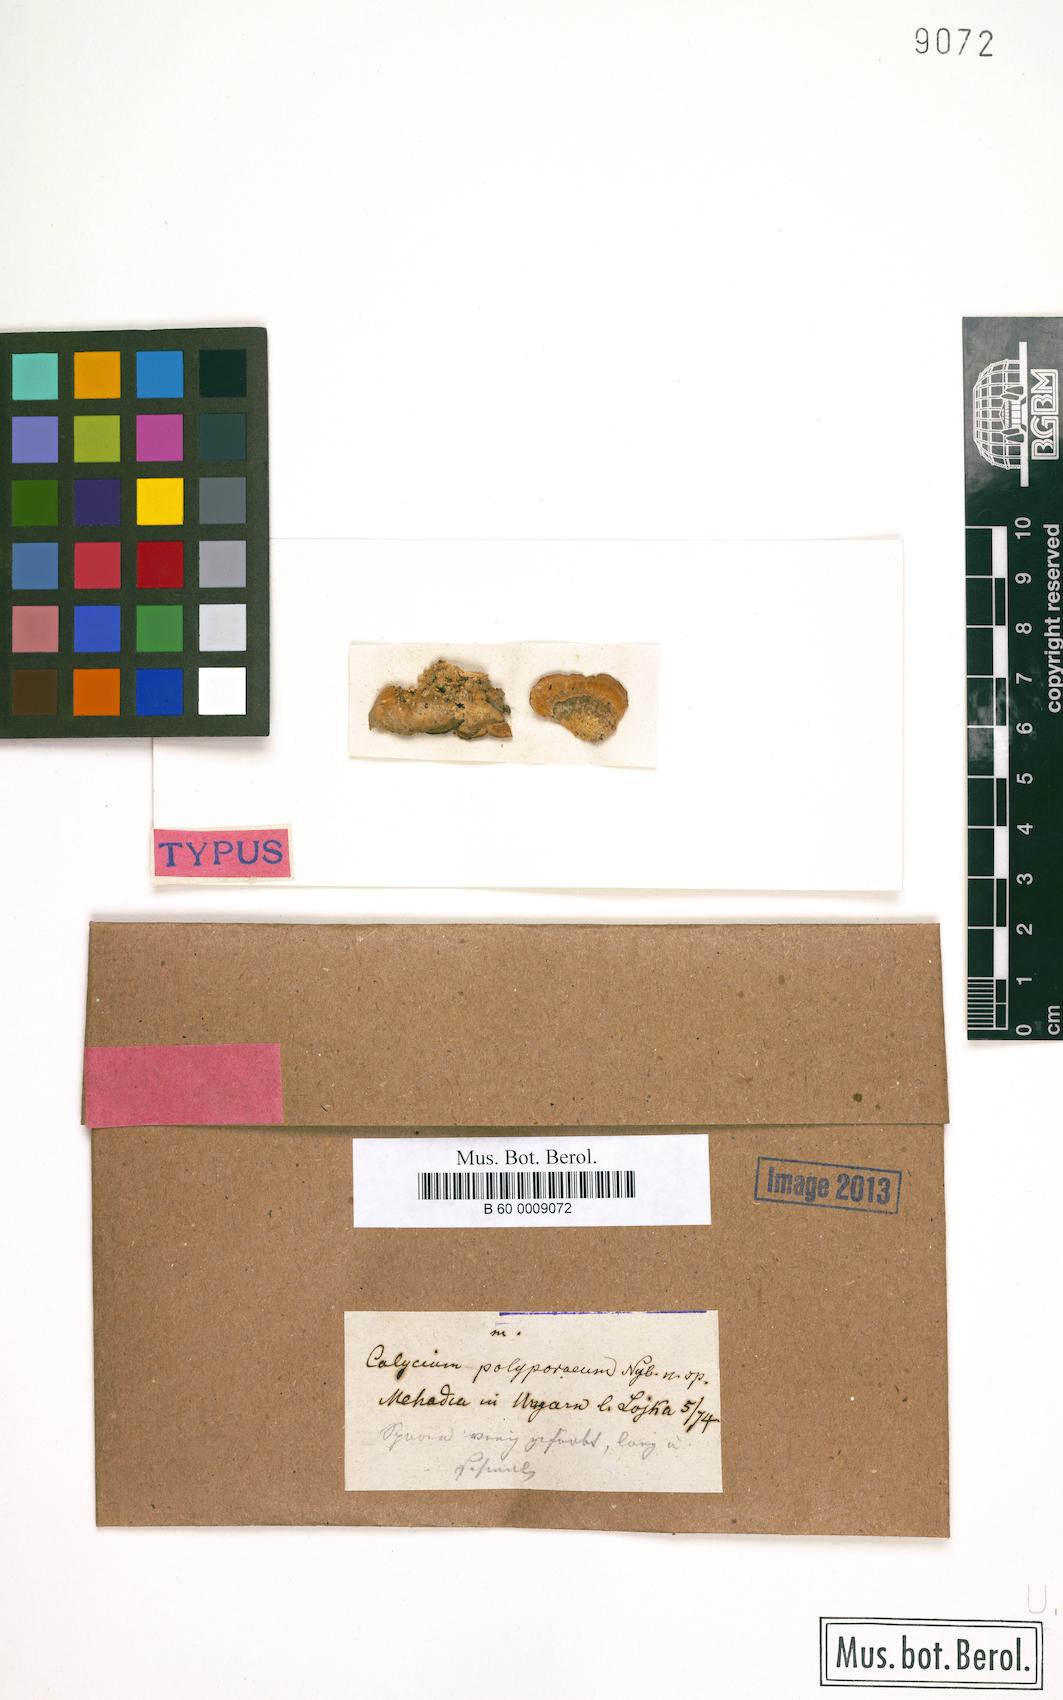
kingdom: Fungi
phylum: Ascomycota
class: Lecanoromycetes
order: Caliciales
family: Caliciaceae
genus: Calicium
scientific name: Calicium
